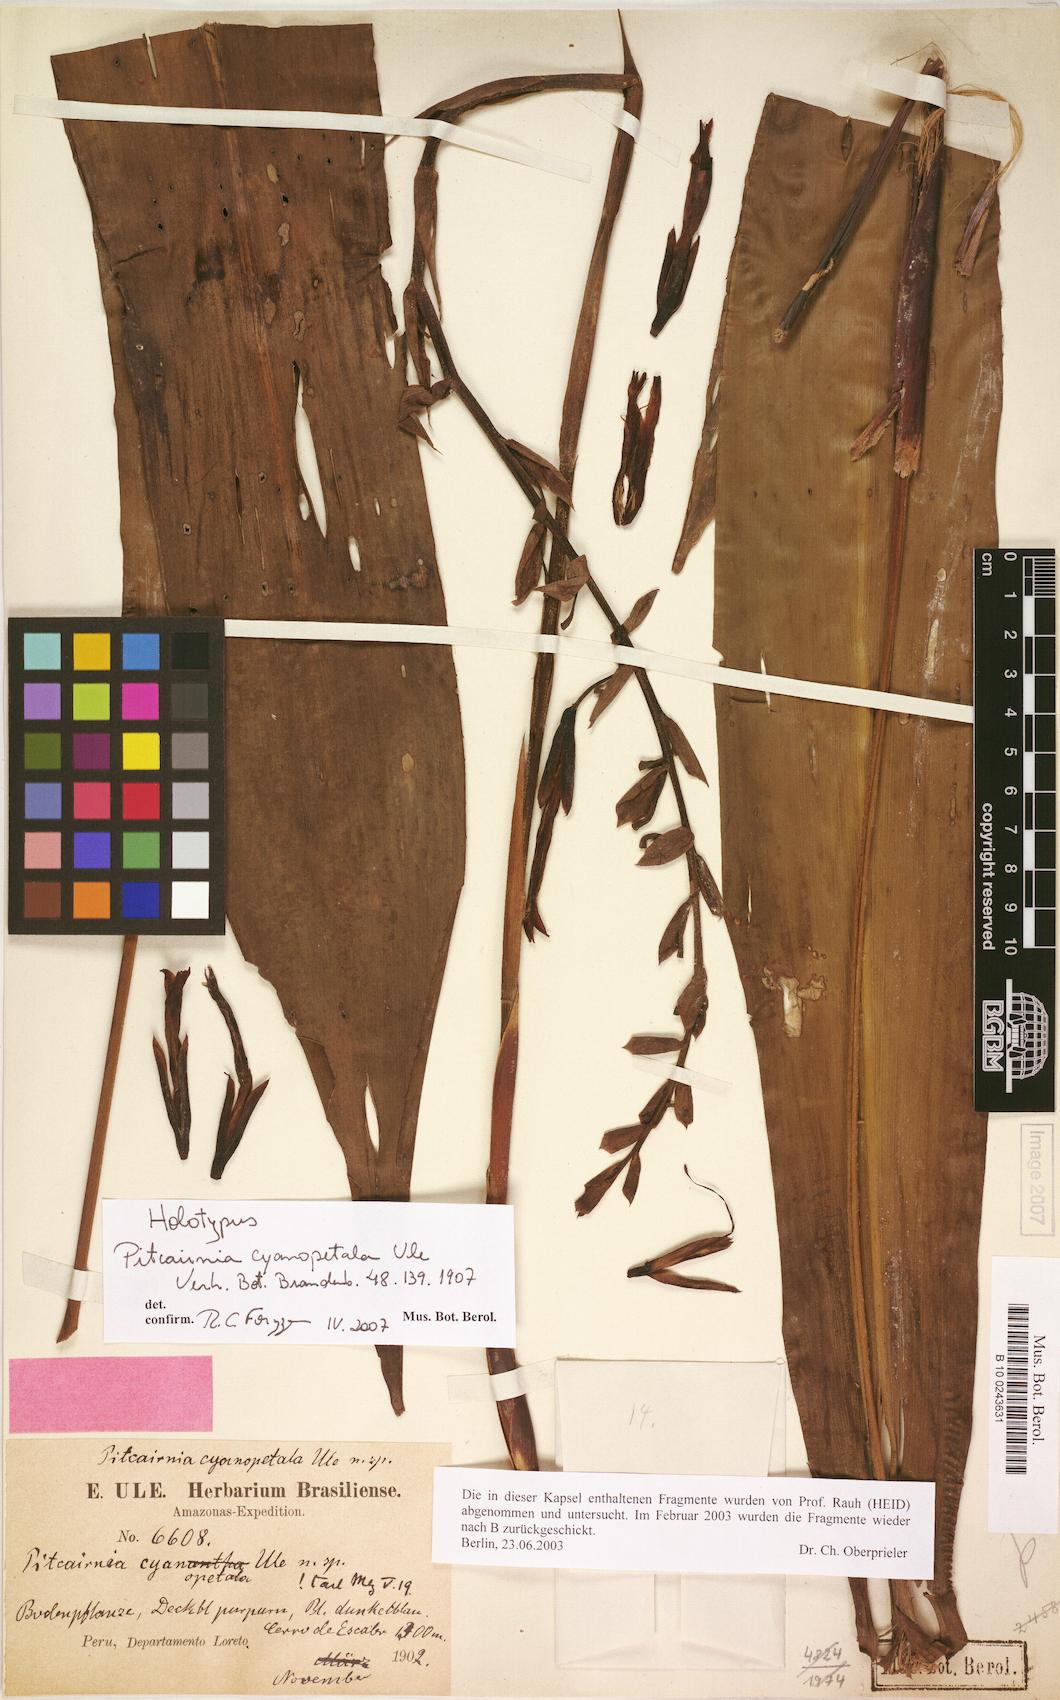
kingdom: Plantae
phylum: Tracheophyta
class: Liliopsida
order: Poales
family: Bromeliaceae
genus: Pitcairnia
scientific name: Pitcairnia cyanopetala
